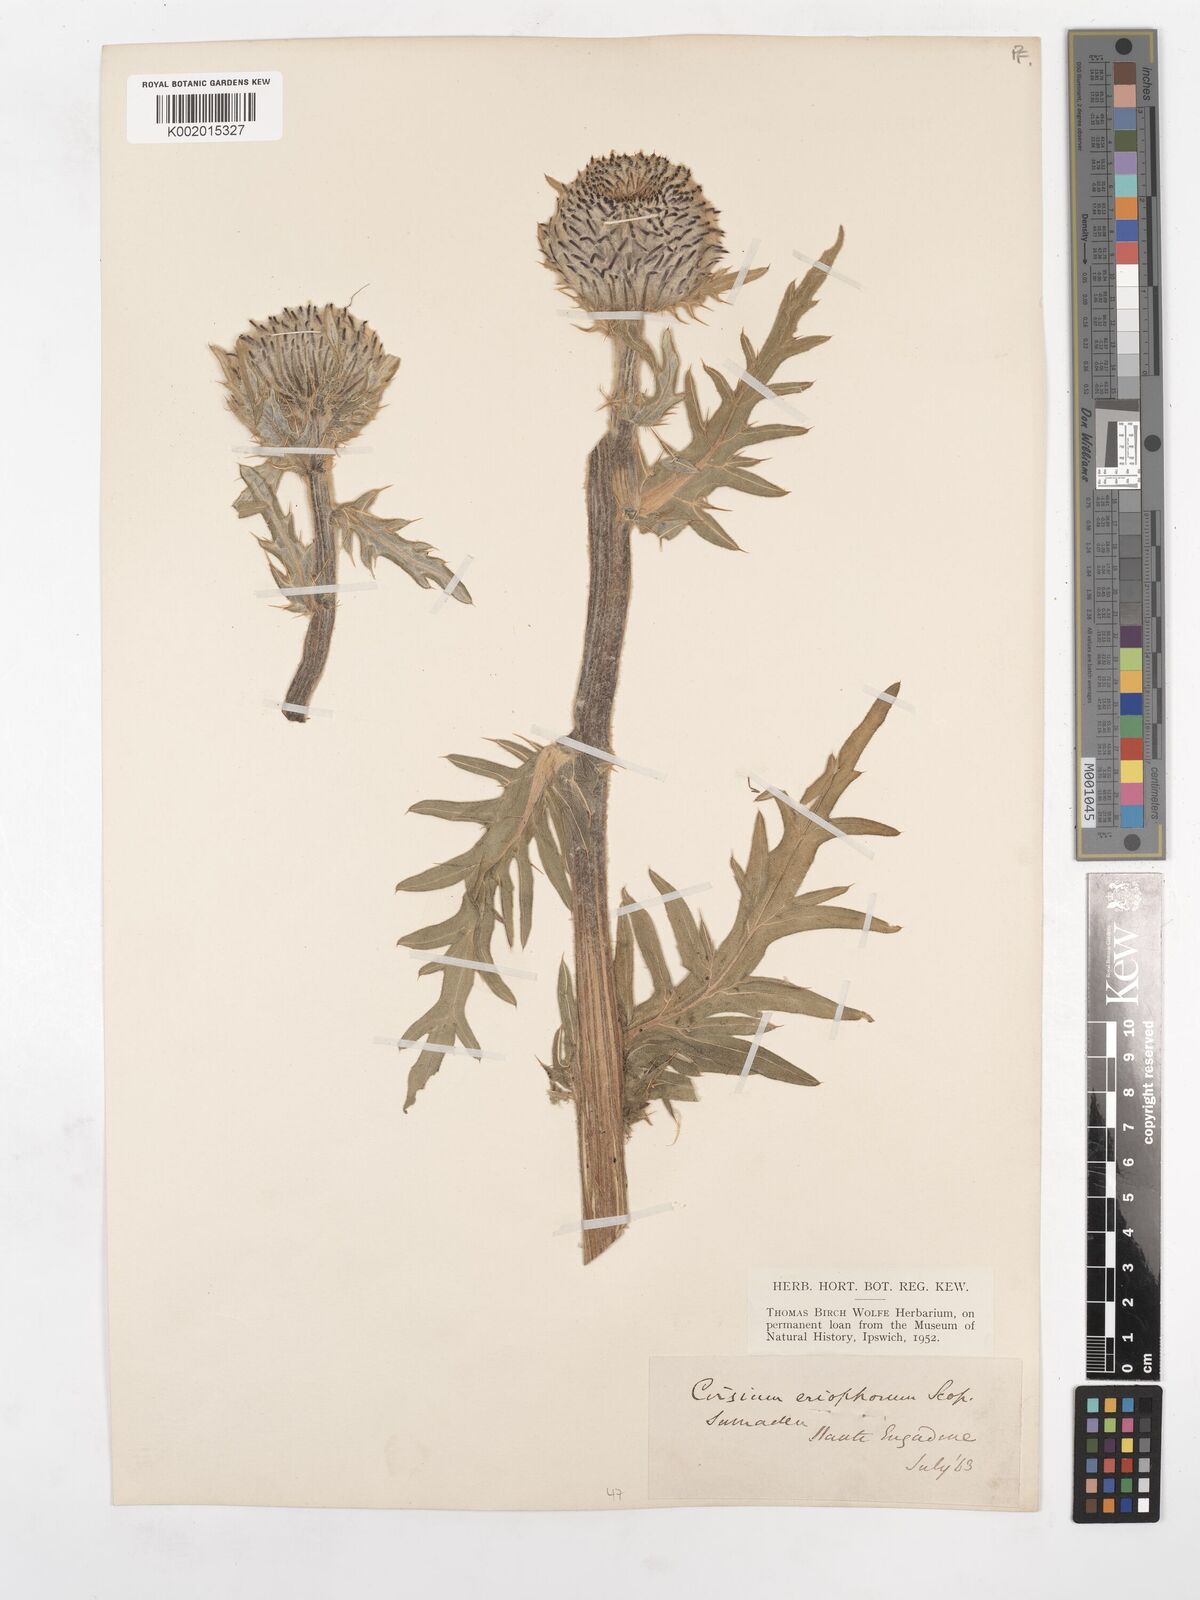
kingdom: Plantae
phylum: Tracheophyta
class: Magnoliopsida
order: Asterales
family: Asteraceae
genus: Lophiolepis
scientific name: Lophiolepis eriophora
